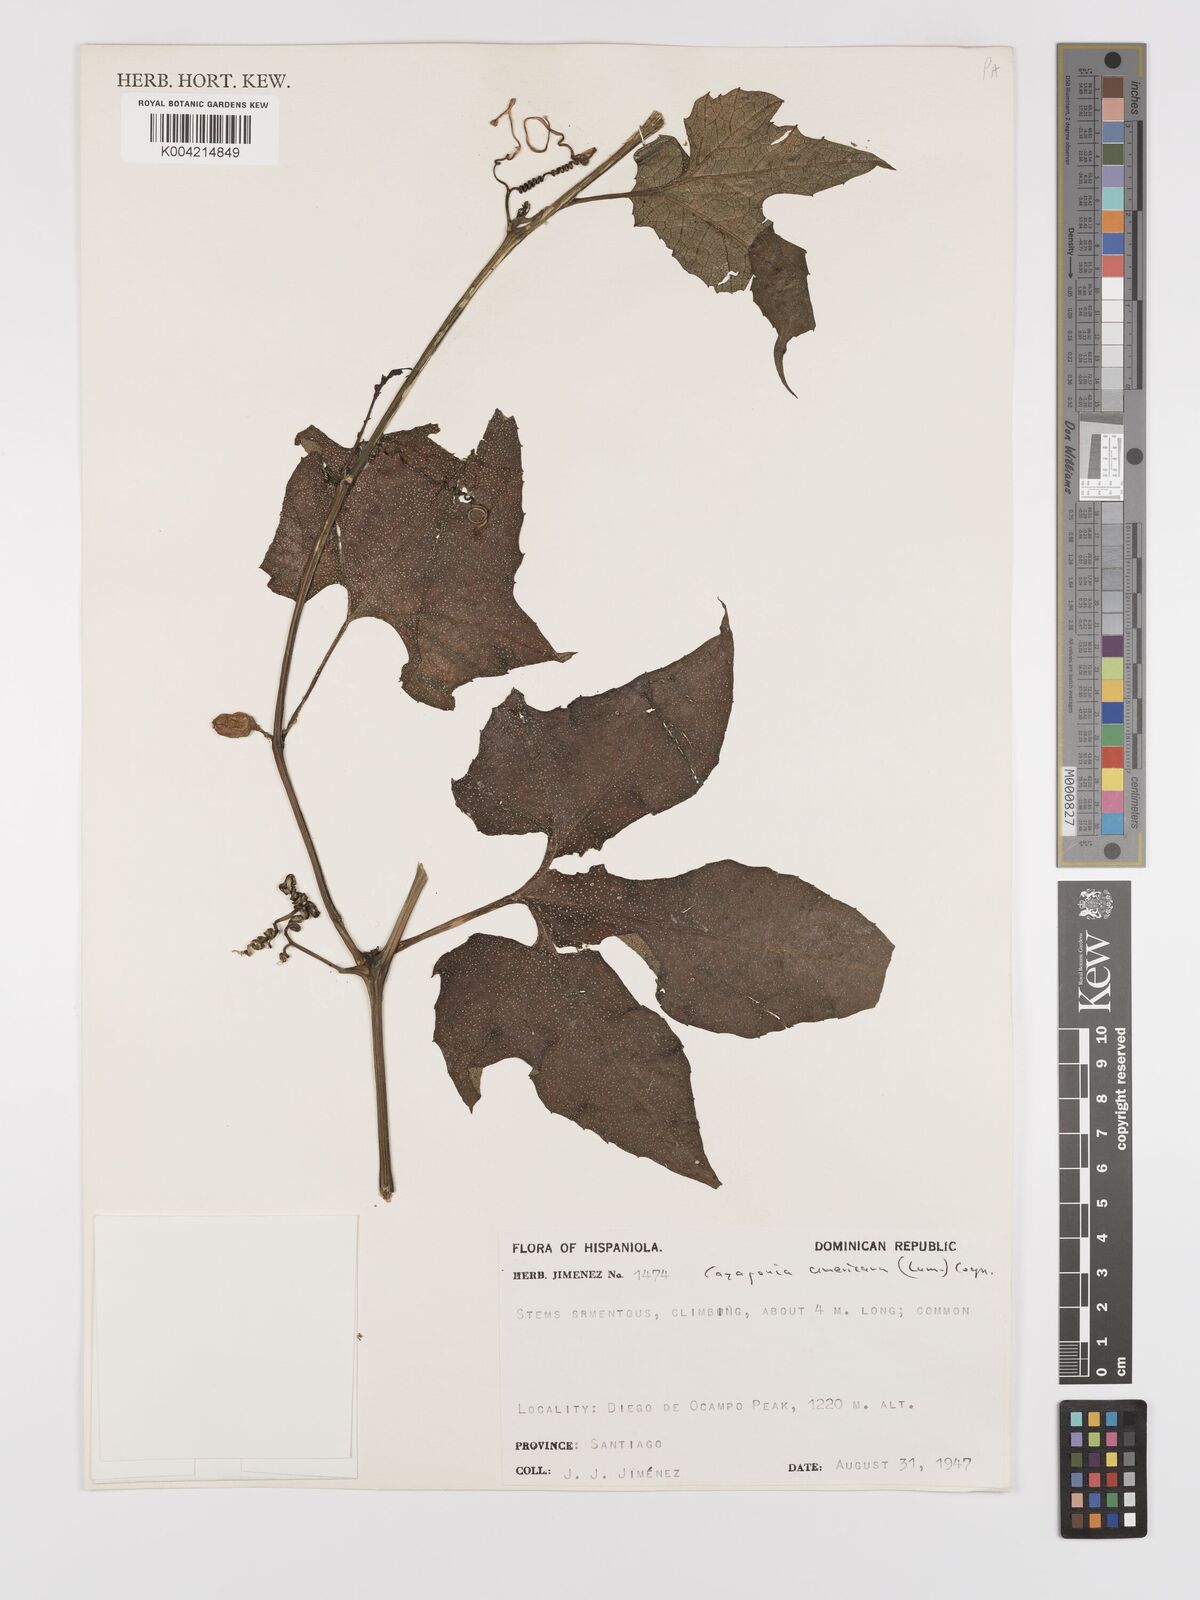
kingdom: Plantae
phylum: Tracheophyta
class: Magnoliopsida
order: Cucurbitales
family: Cucurbitaceae
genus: Cayaponia
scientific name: Cayaponia americana
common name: American melonleaf
